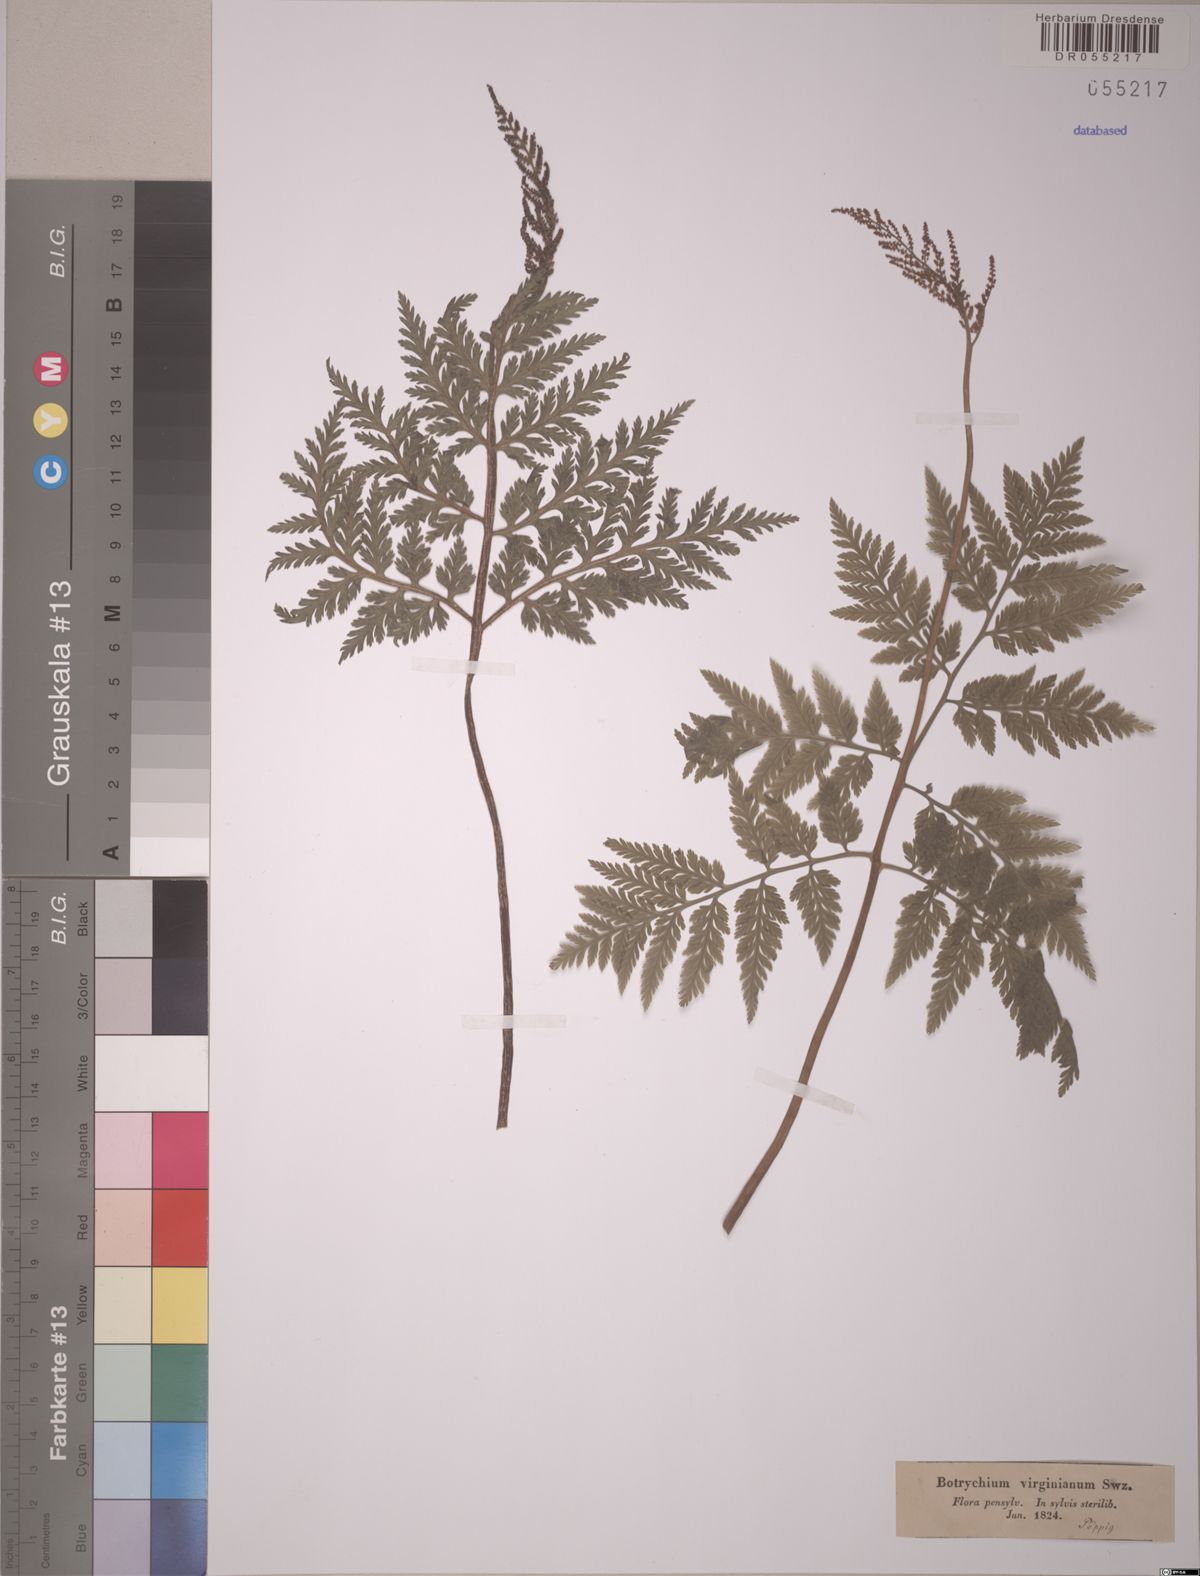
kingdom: Plantae
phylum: Tracheophyta
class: Polypodiopsida
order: Ophioglossales
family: Ophioglossaceae
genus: Botrypus
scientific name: Botrypus virginianus
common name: Common grapefern
